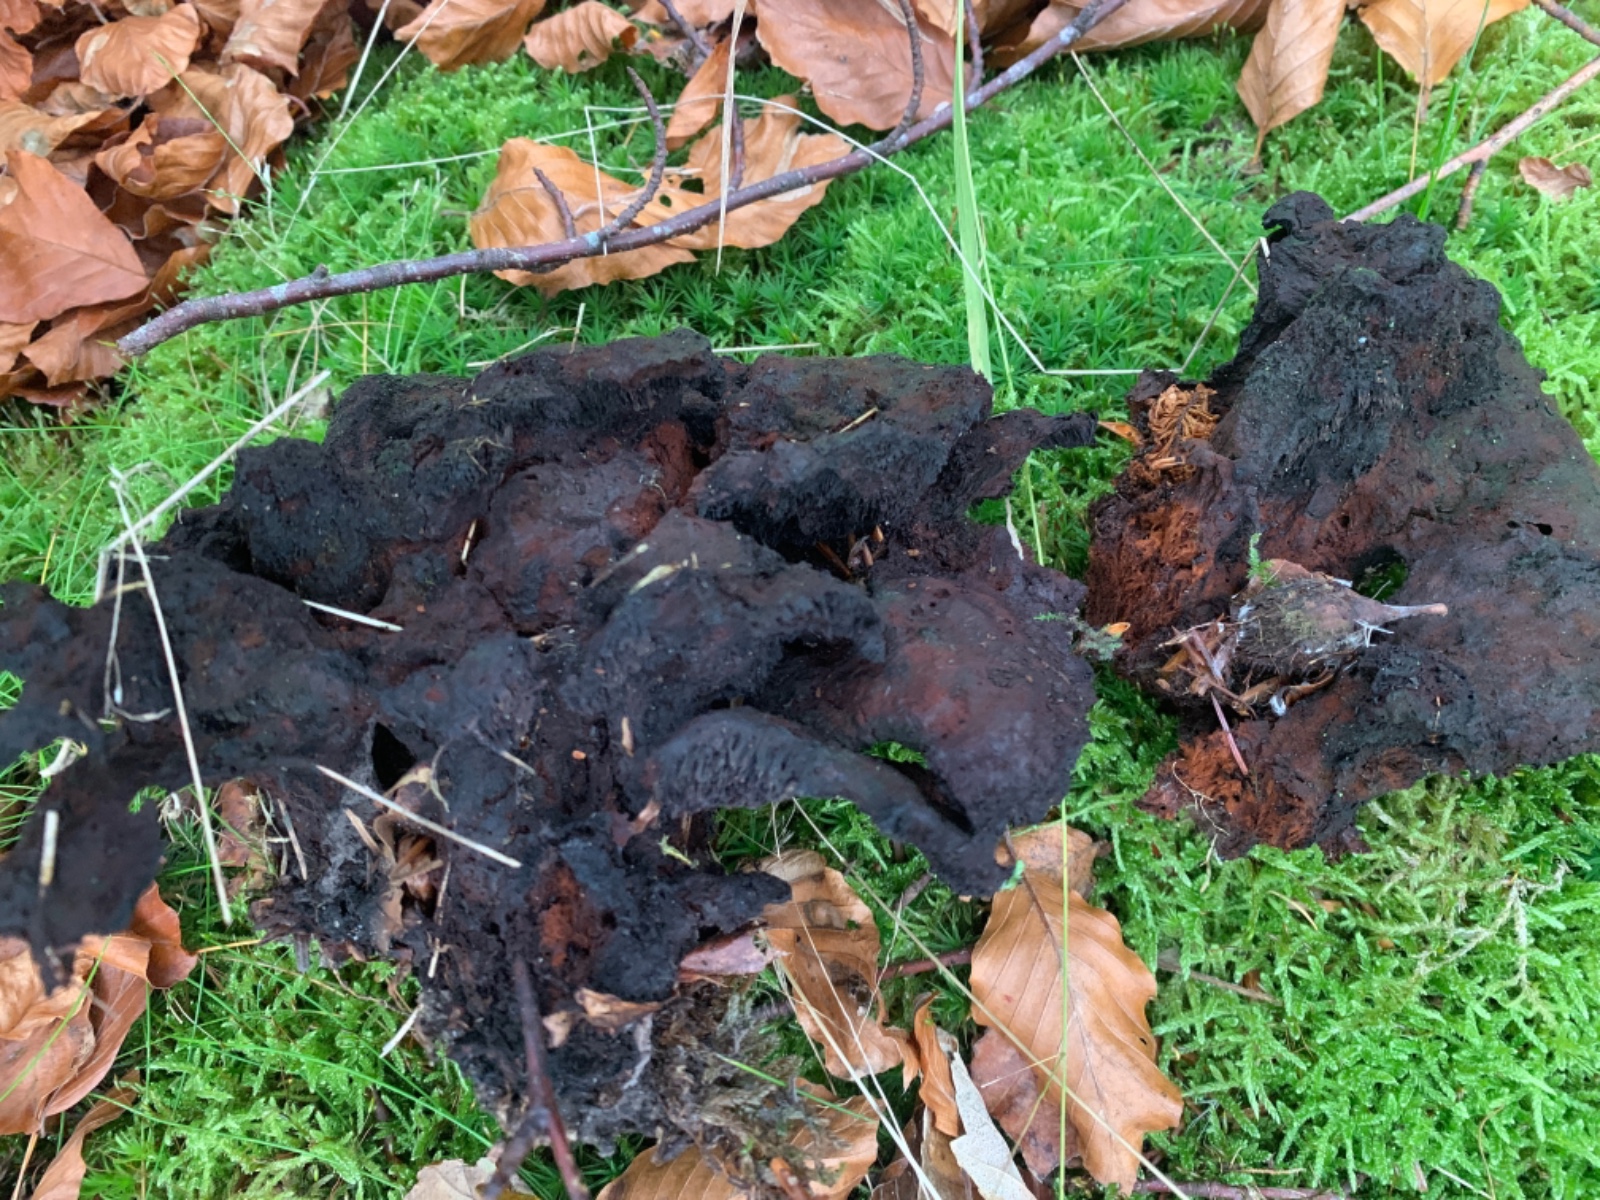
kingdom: Fungi
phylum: Basidiomycota
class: Agaricomycetes
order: Polyporales
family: Laetiporaceae
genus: Phaeolus
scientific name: Phaeolus schweinitzii
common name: brunporesvamp
